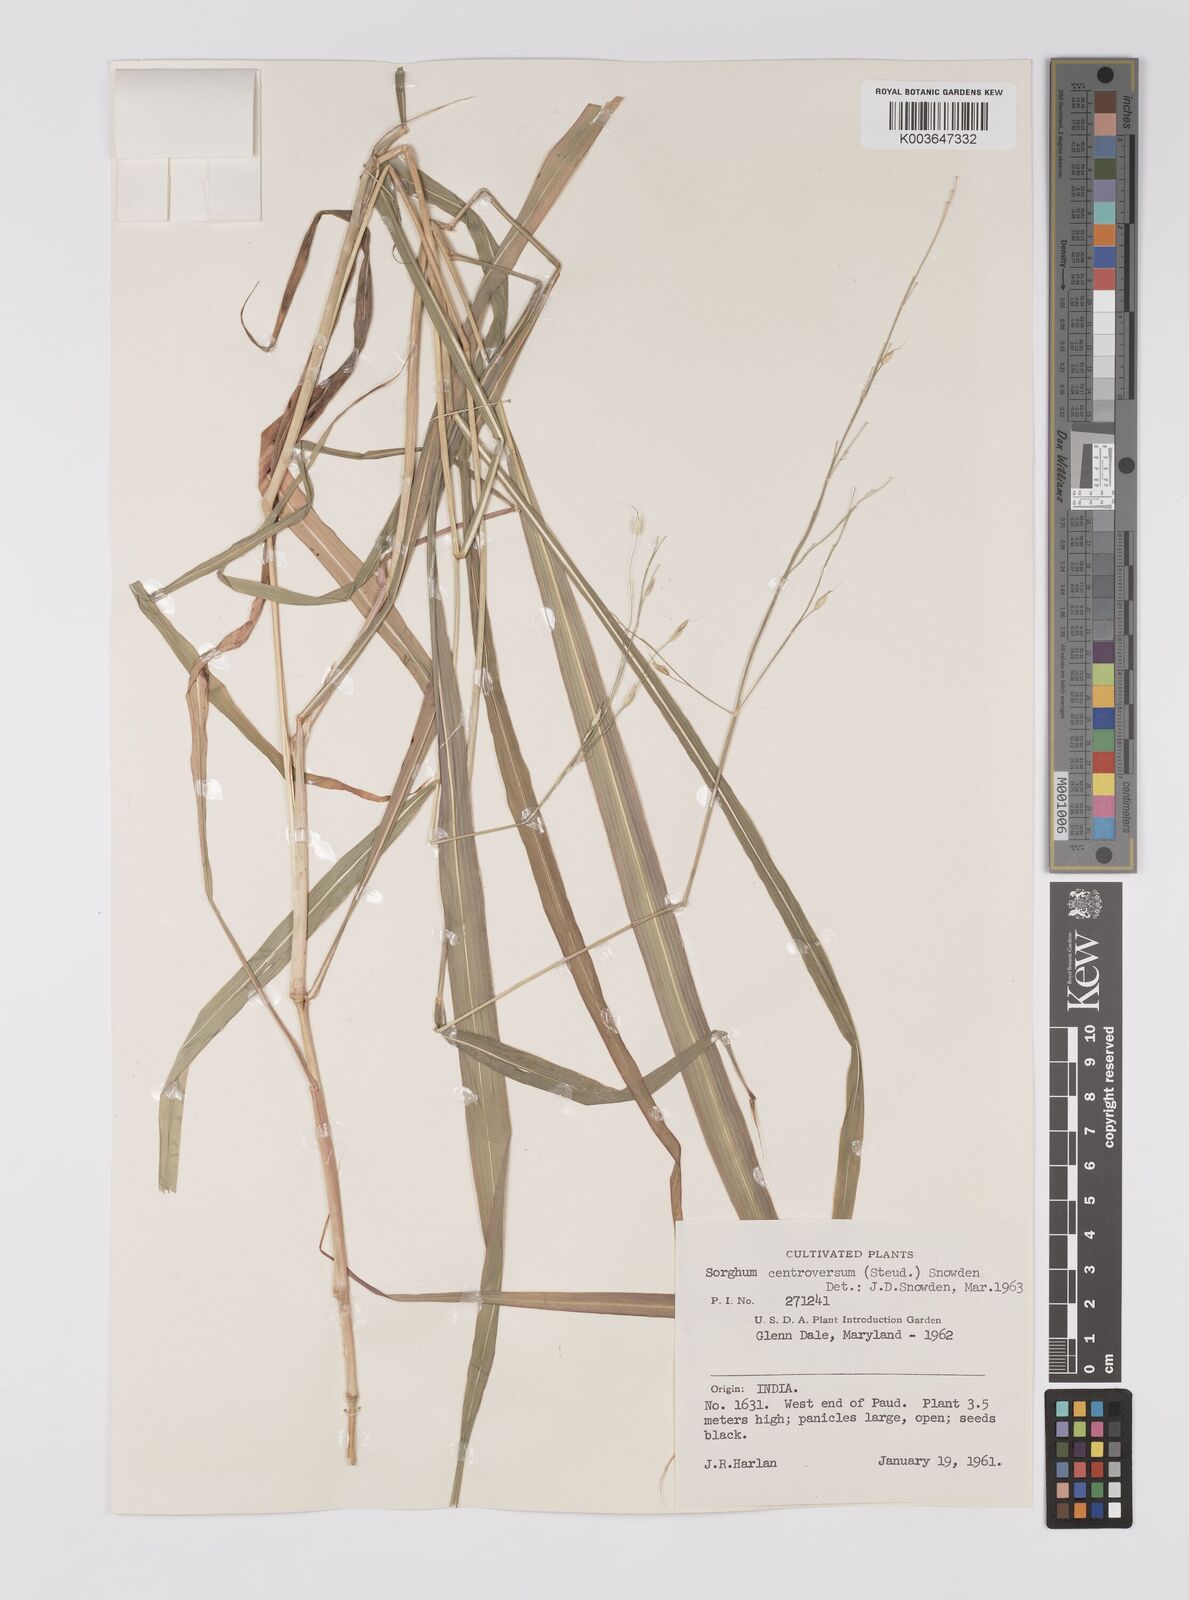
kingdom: Plantae
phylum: Tracheophyta
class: Liliopsida
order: Poales
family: Poaceae
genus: Sorghum
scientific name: Sorghum controversum
